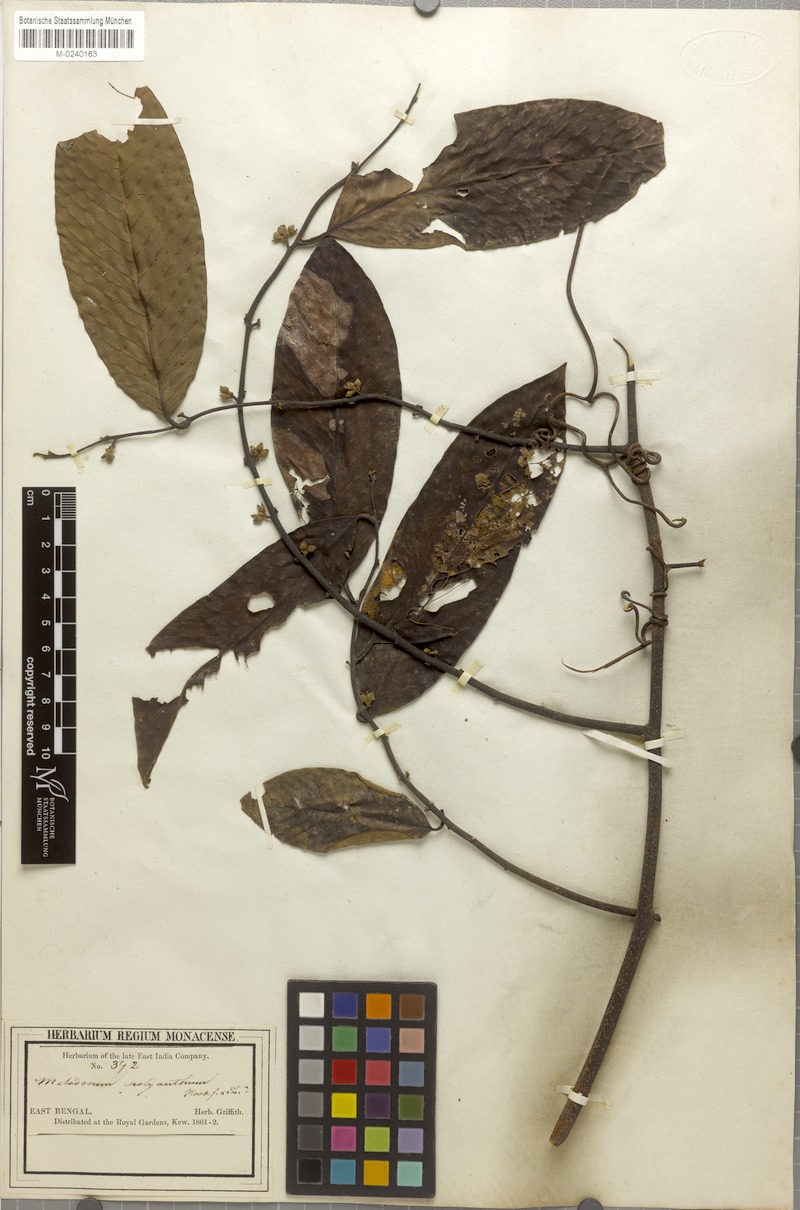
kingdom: Plantae
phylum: Tracheophyta
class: Magnoliopsida
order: Magnoliales
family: Annonaceae
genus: Fissistigma
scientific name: Fissistigma polyanthum
